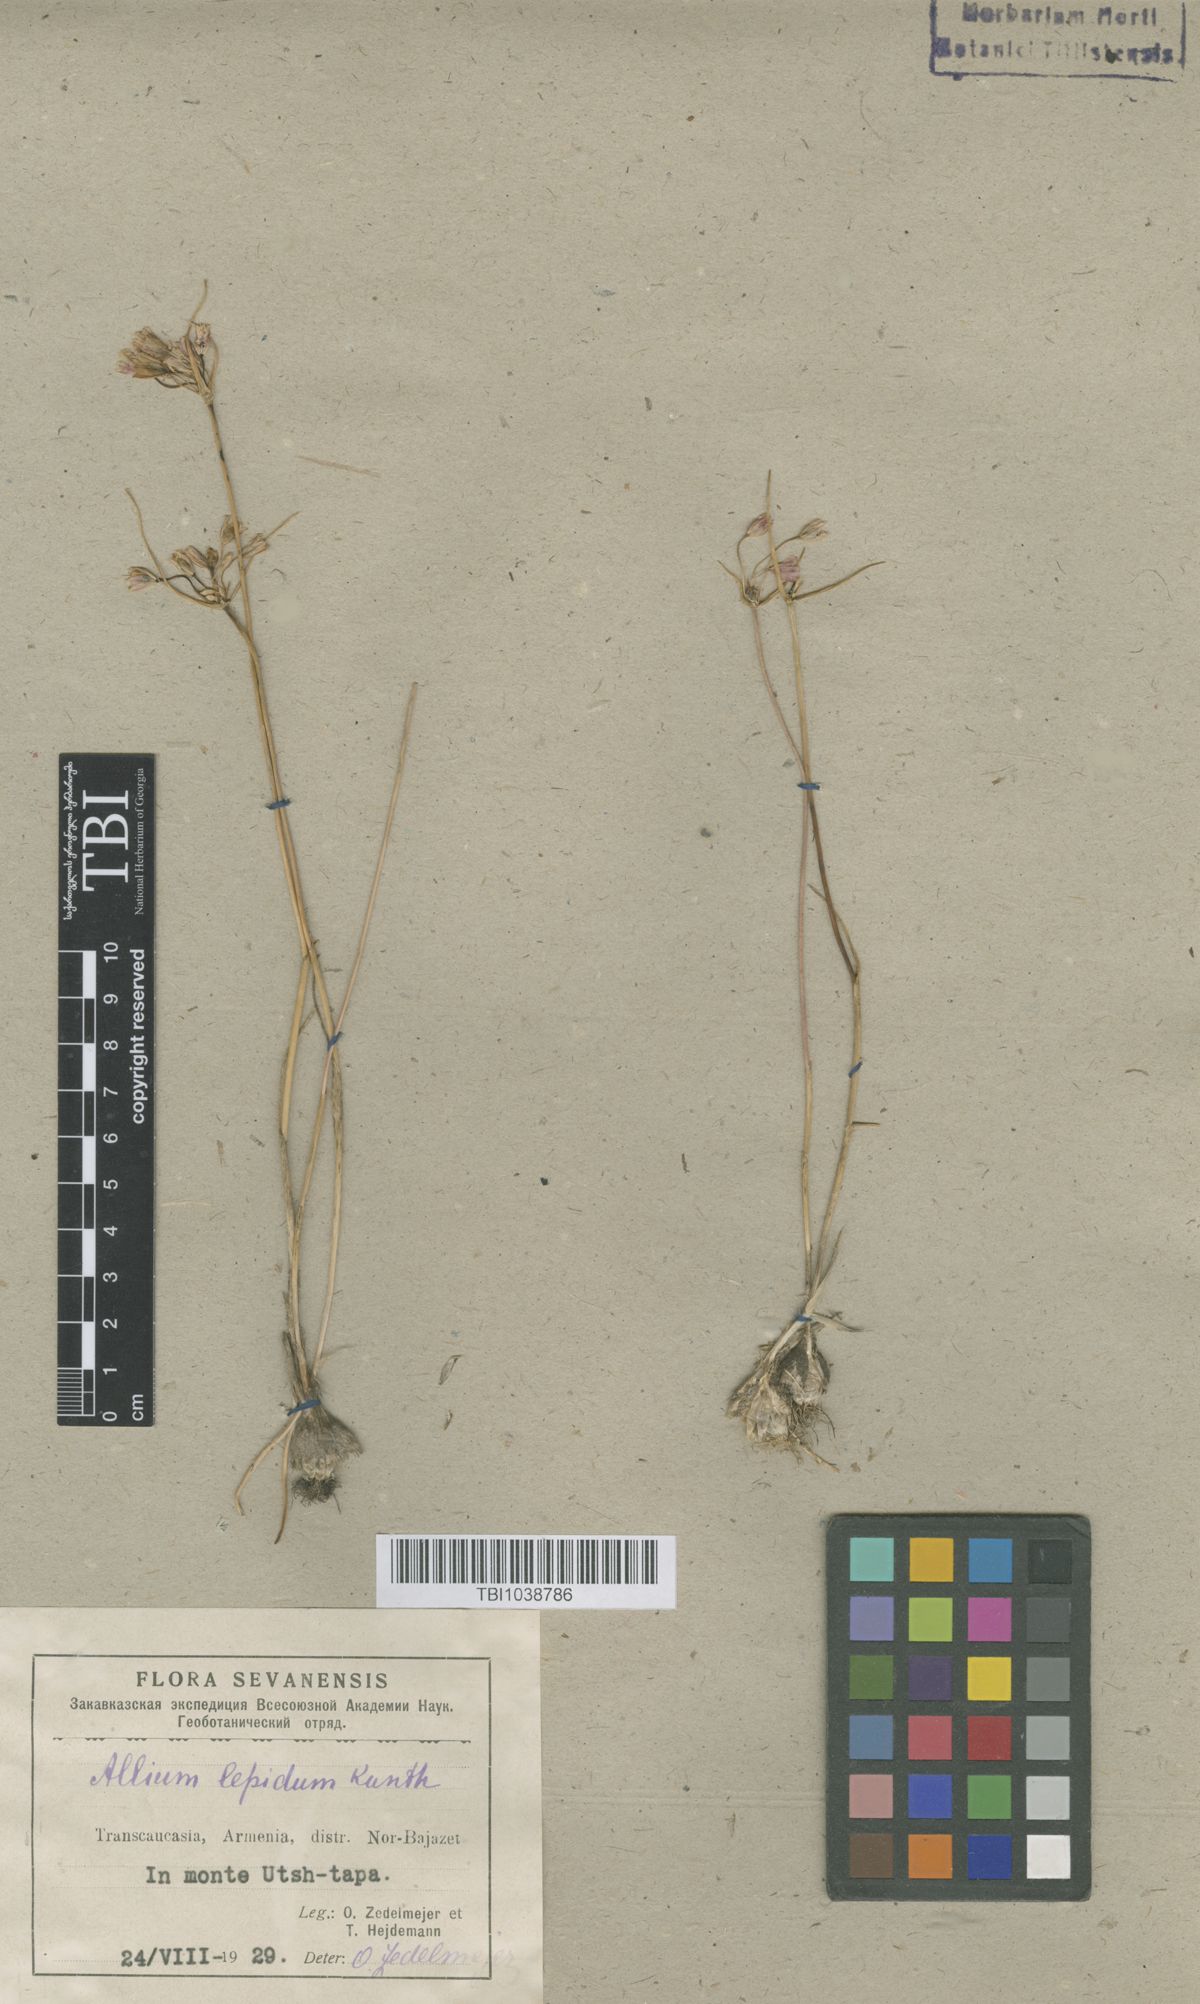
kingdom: Plantae
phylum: Tracheophyta
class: Liliopsida
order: Asparagales
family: Amaryllidaceae
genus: Allium
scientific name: Allium kunthianum
